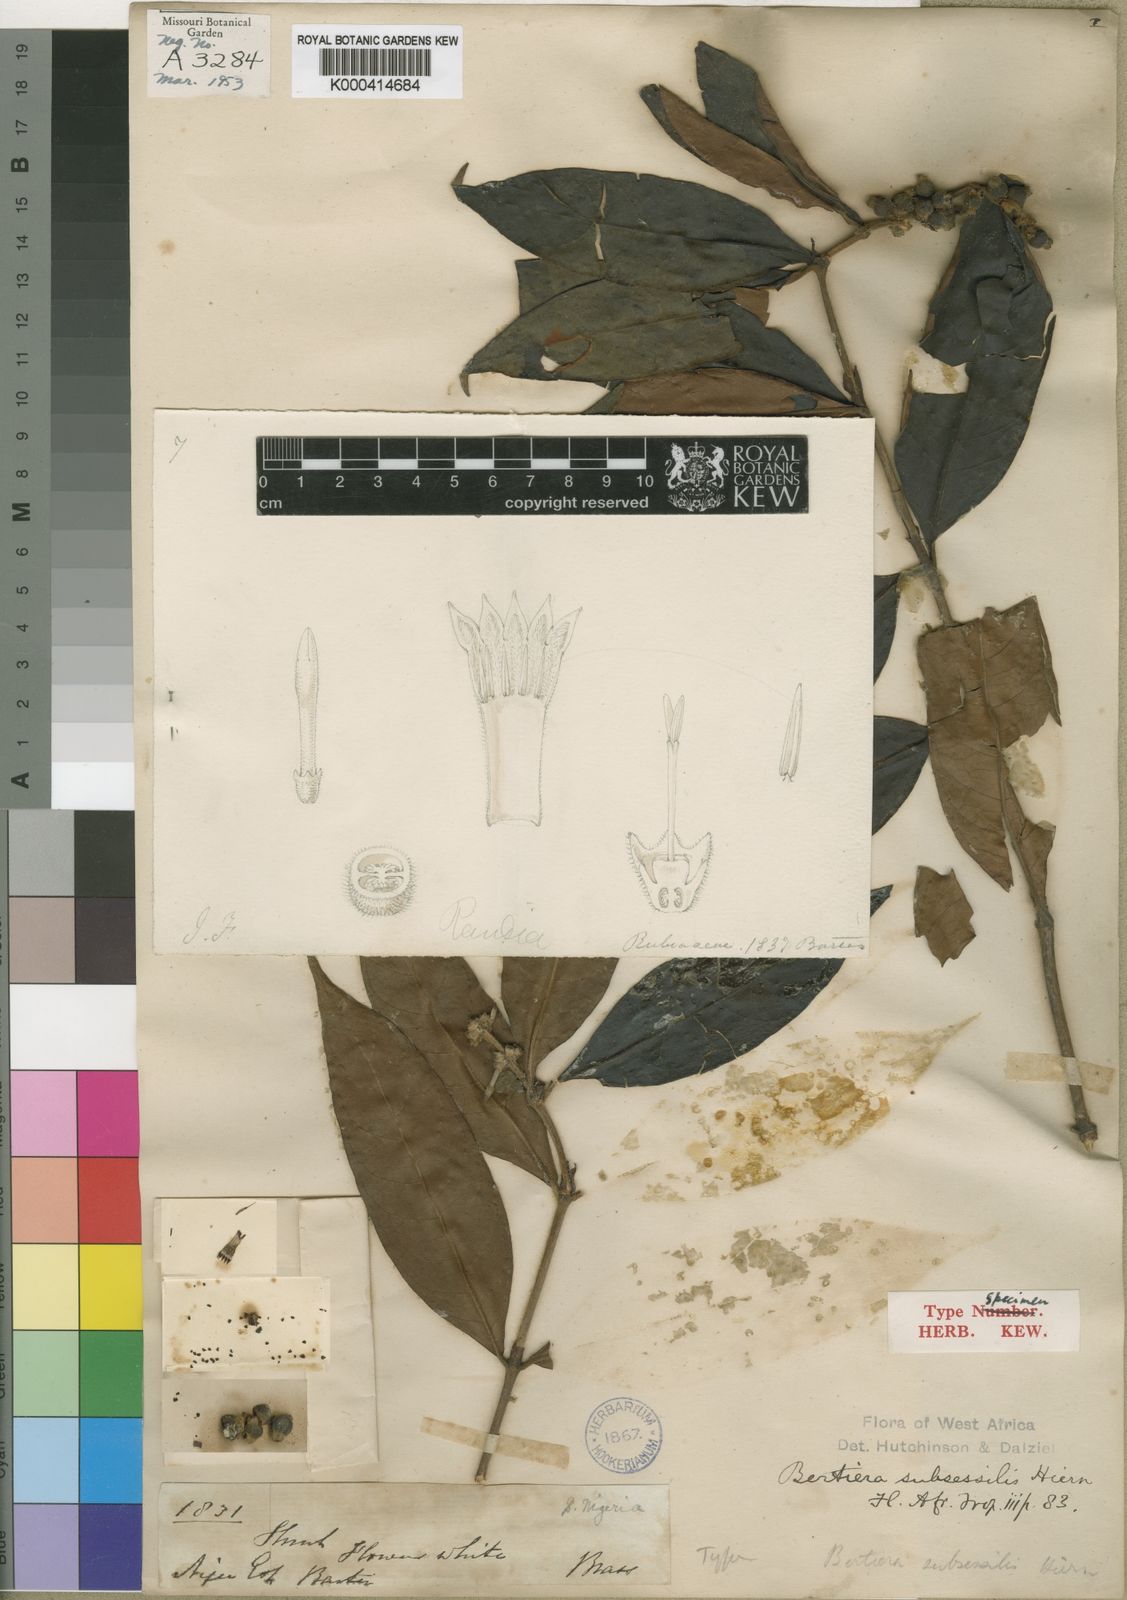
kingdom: Plantae
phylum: Tracheophyta
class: Magnoliopsida
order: Gentianales
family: Rubiaceae
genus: Bertiera
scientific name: Bertiera subsessilis
